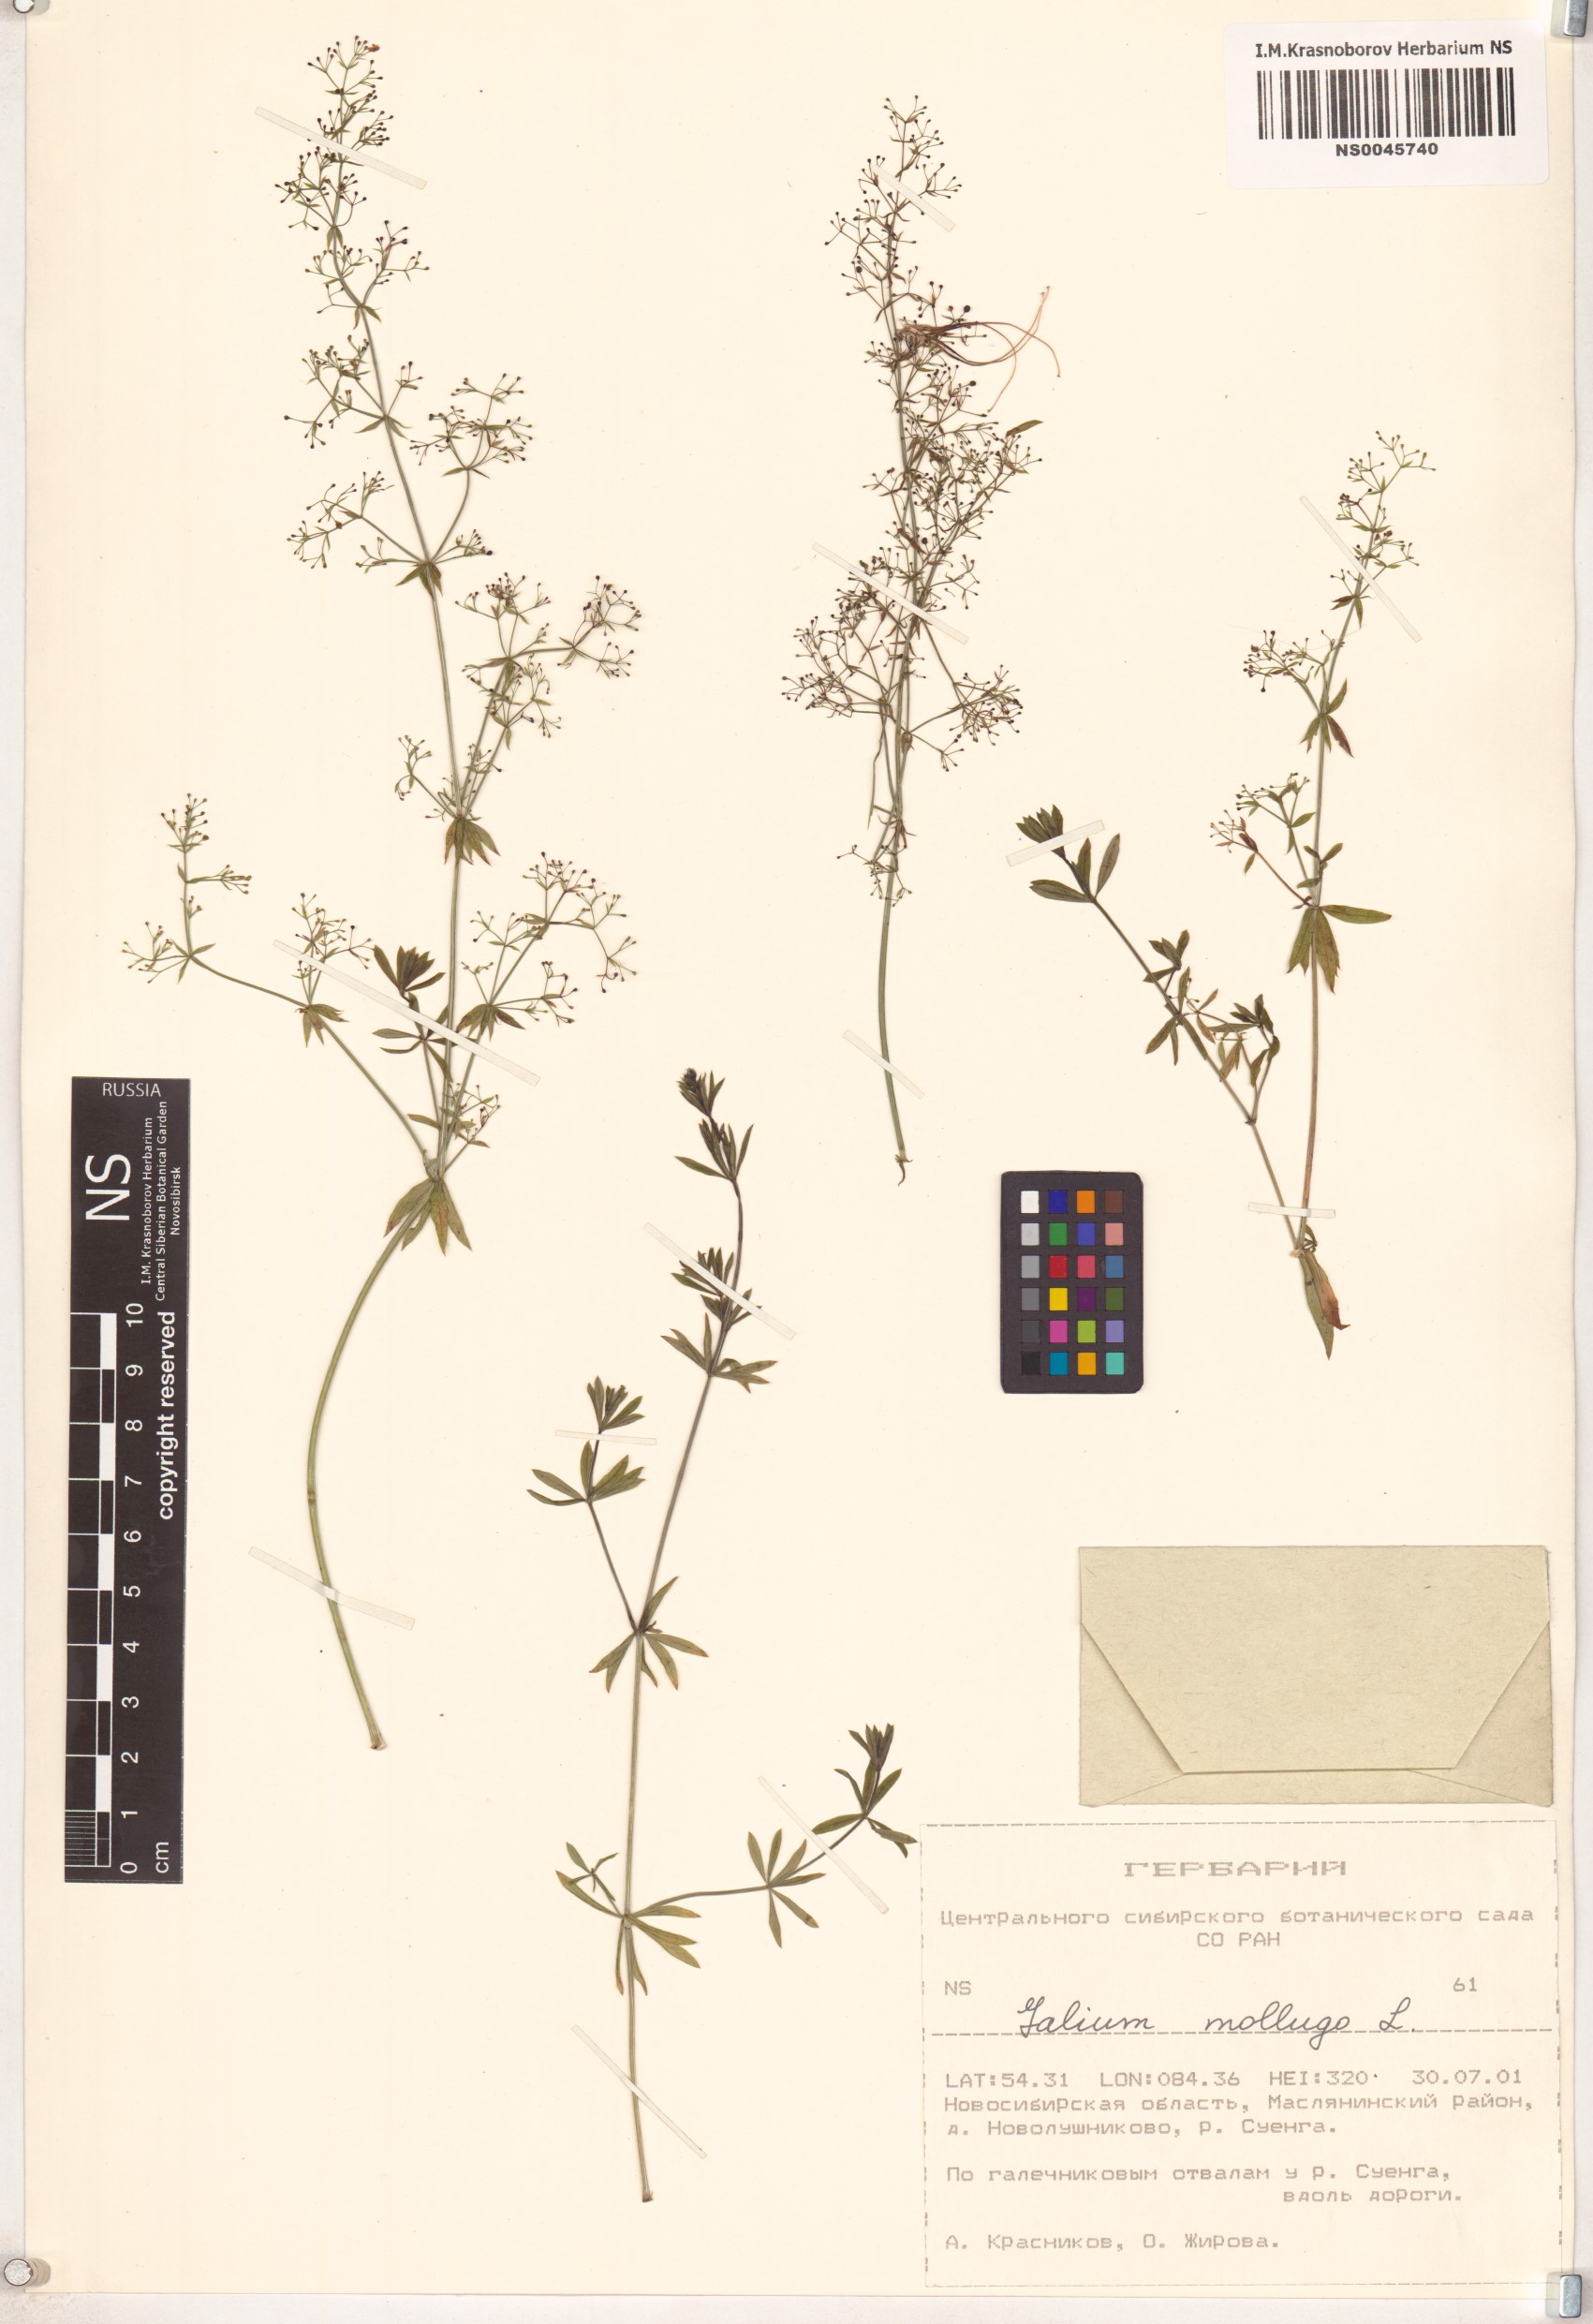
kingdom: Plantae
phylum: Tracheophyta
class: Magnoliopsida
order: Gentianales
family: Rubiaceae
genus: Galium
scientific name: Galium mollugo
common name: Hedge bedstraw
